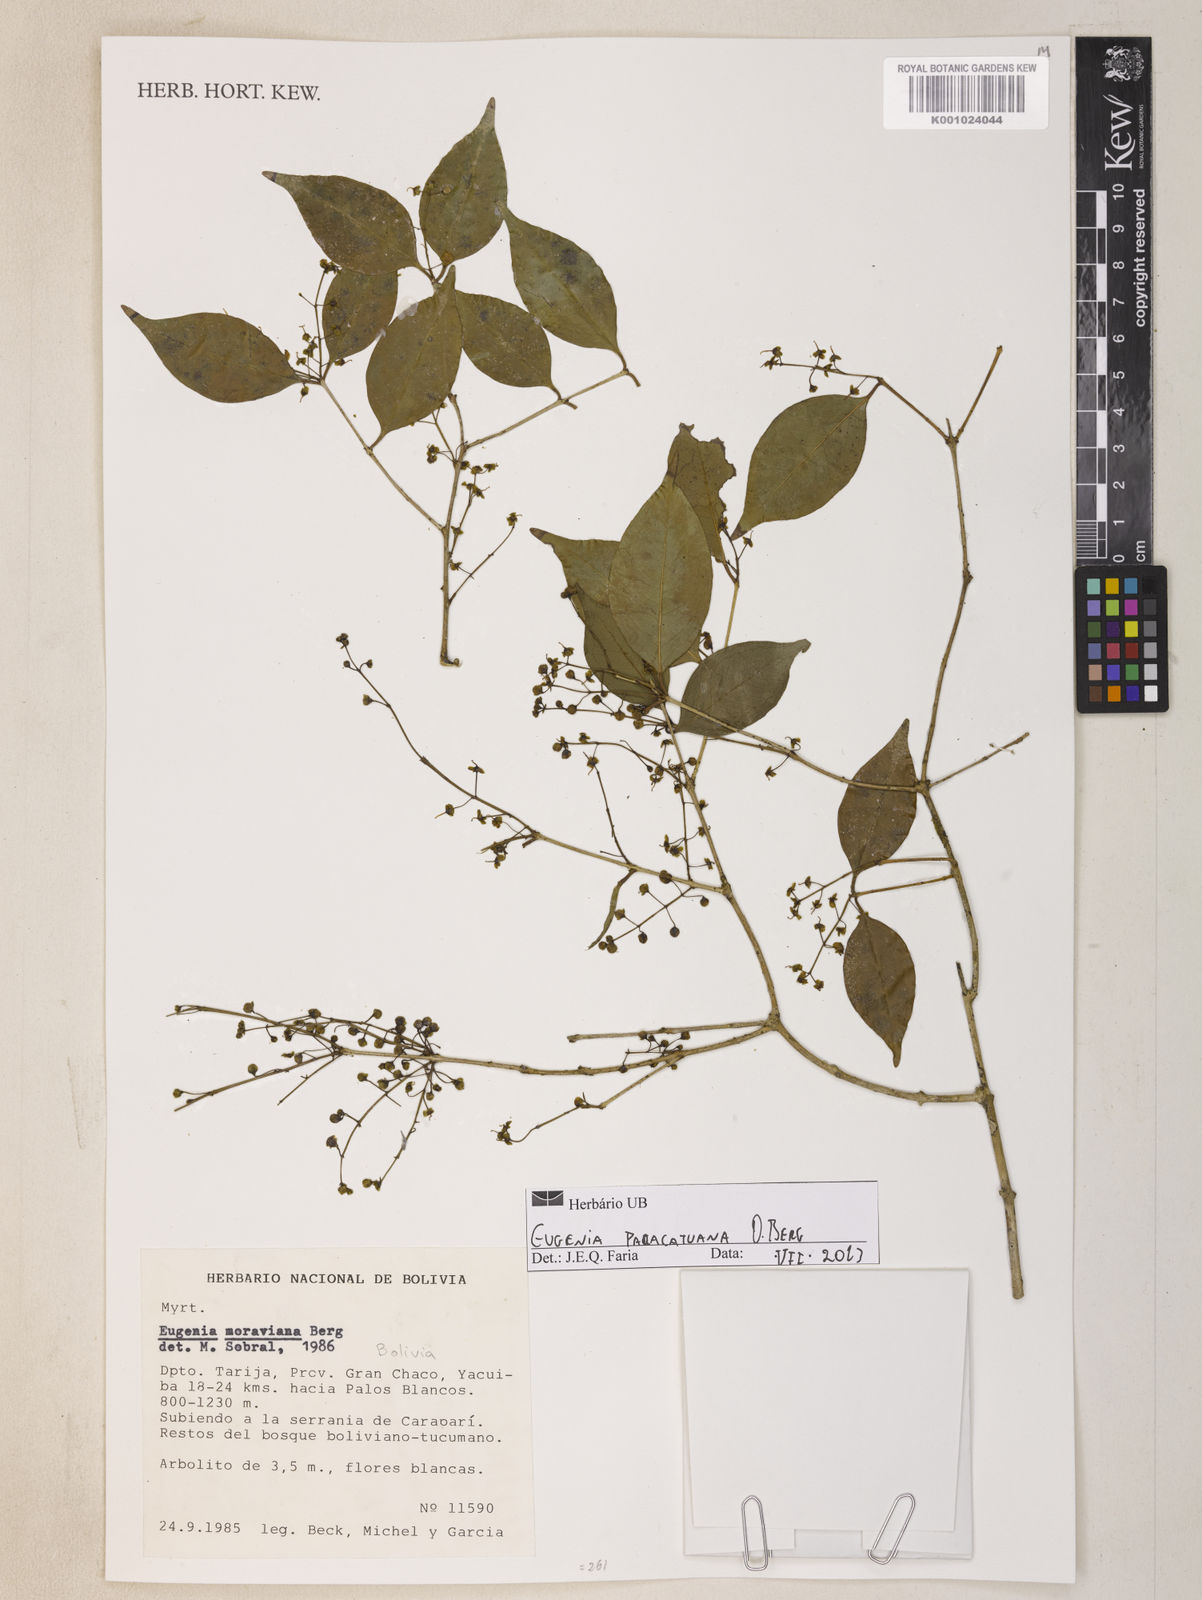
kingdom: Plantae
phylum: Tracheophyta
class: Magnoliopsida
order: Myrtales
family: Myrtaceae
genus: Eugenia
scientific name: Eugenia moraviana
